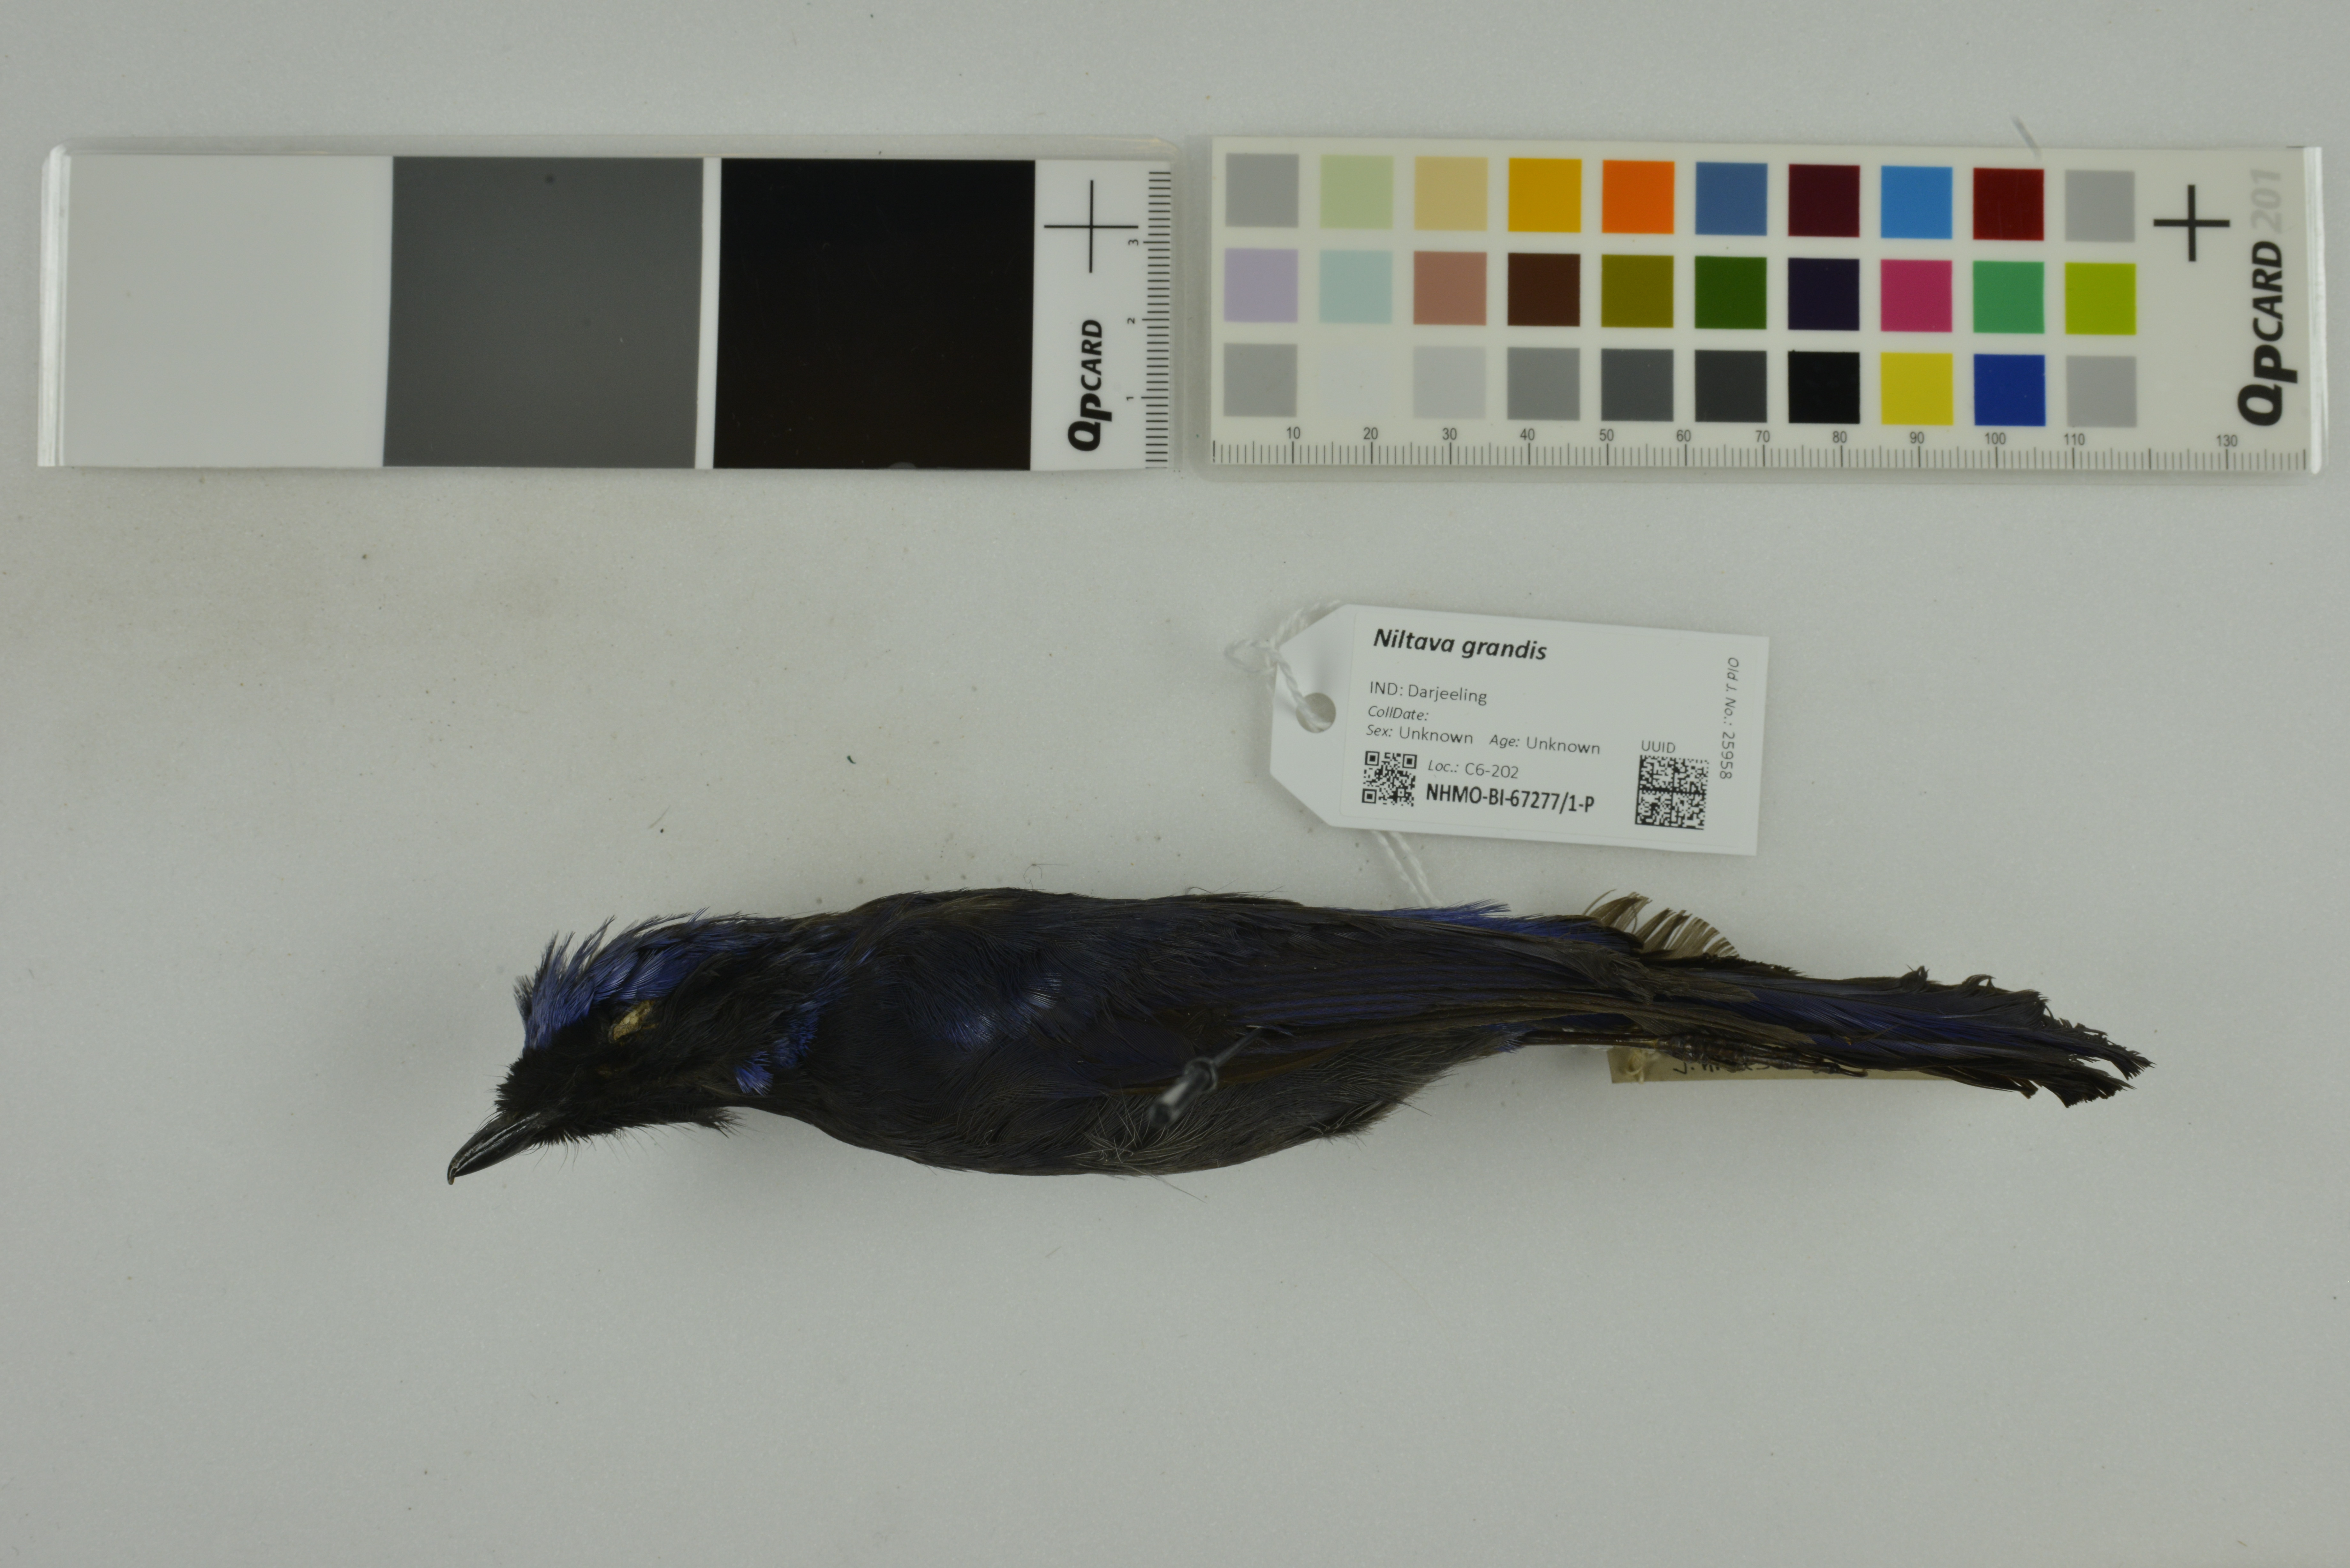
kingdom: Animalia
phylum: Chordata
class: Aves
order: Passeriformes
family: Muscicapidae
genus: Niltava
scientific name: Niltava grandis
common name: Large niltava
